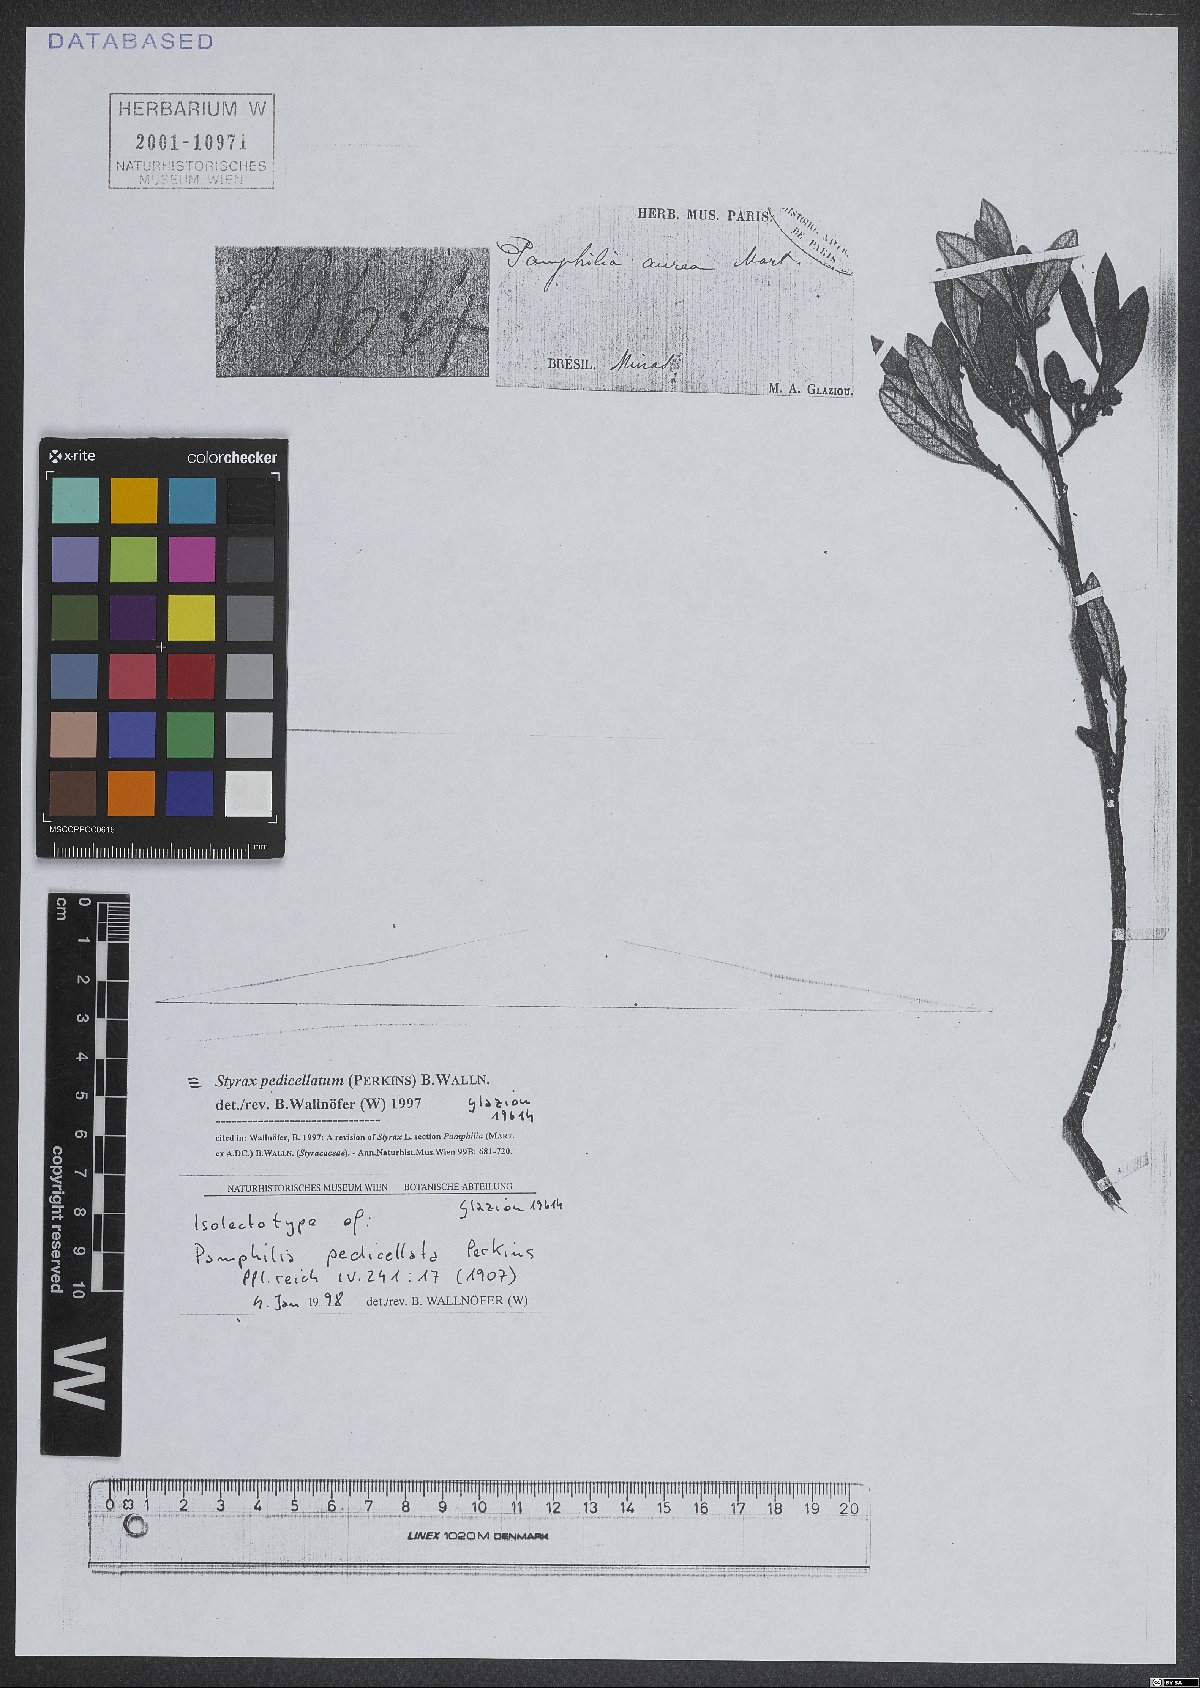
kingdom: Plantae
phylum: Tracheophyta
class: Magnoliopsida
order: Ericales
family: Styracaceae
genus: Styrax
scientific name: Styrax pedicellatus
